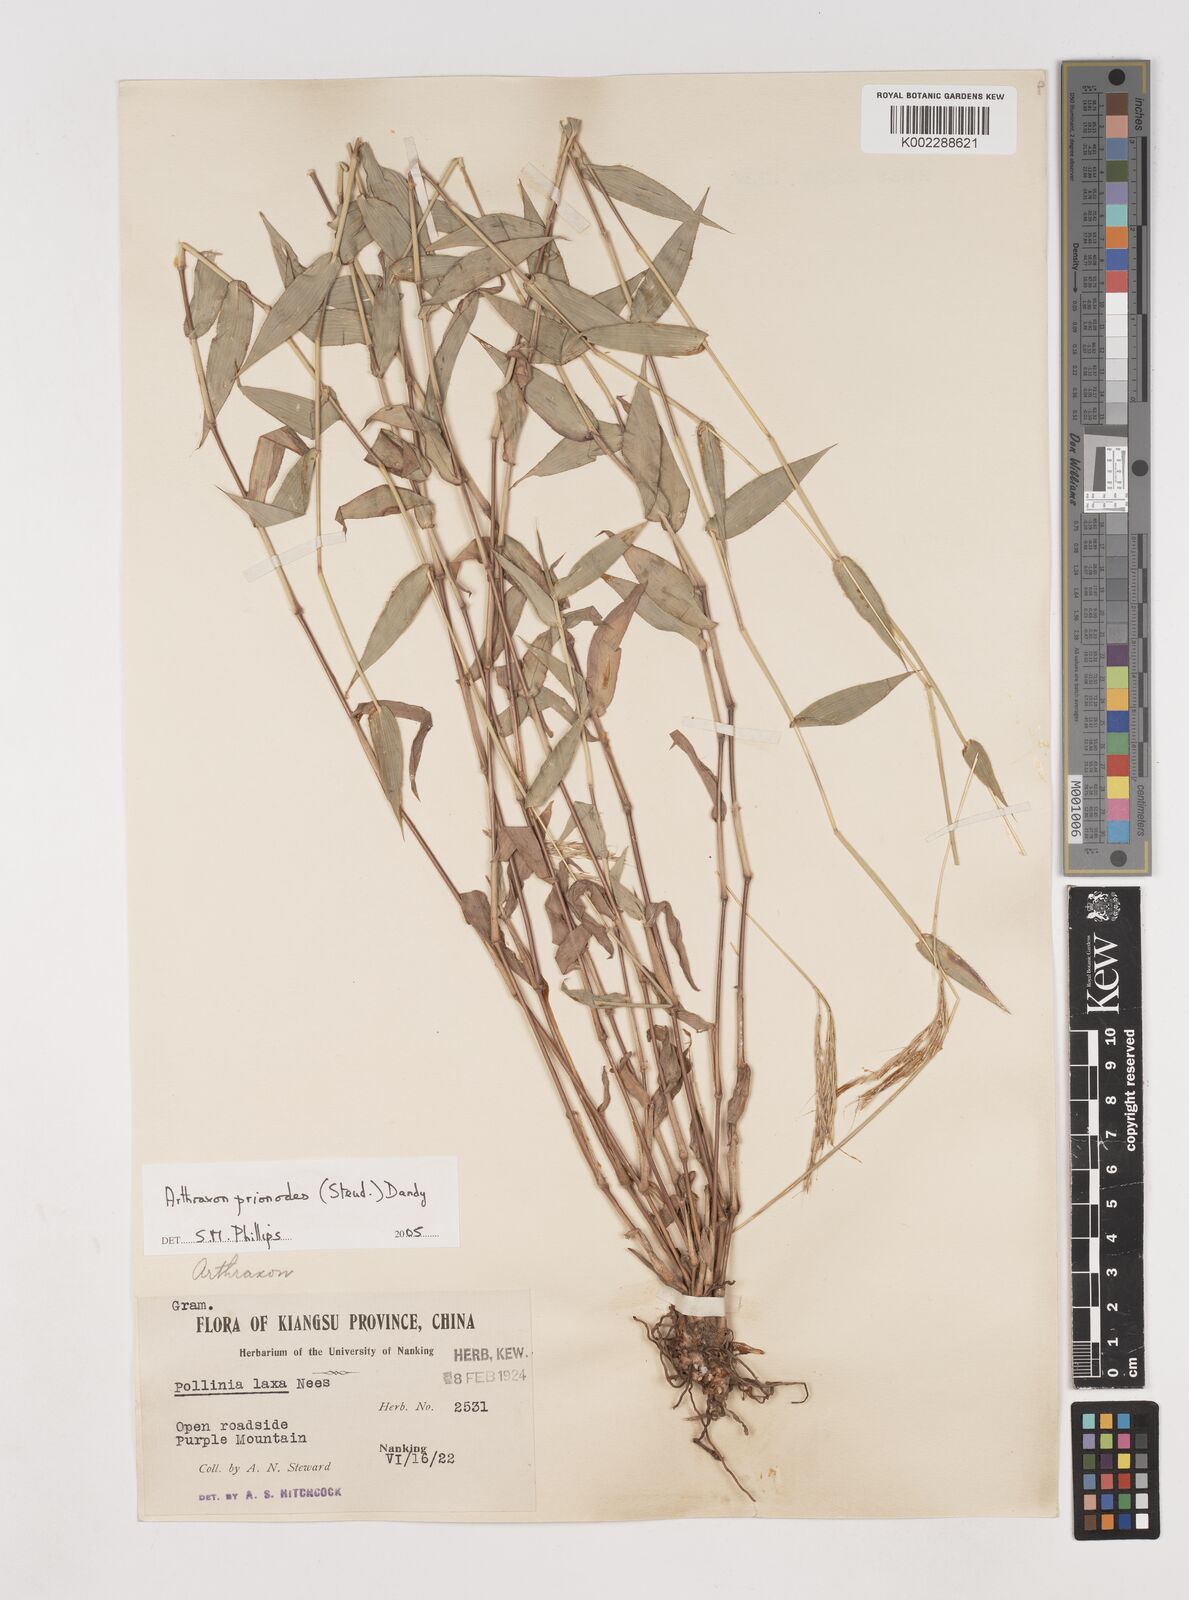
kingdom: Plantae
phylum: Tracheophyta
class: Liliopsida
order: Poales
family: Poaceae
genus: Arthraxon
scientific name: Arthraxon prionodes
